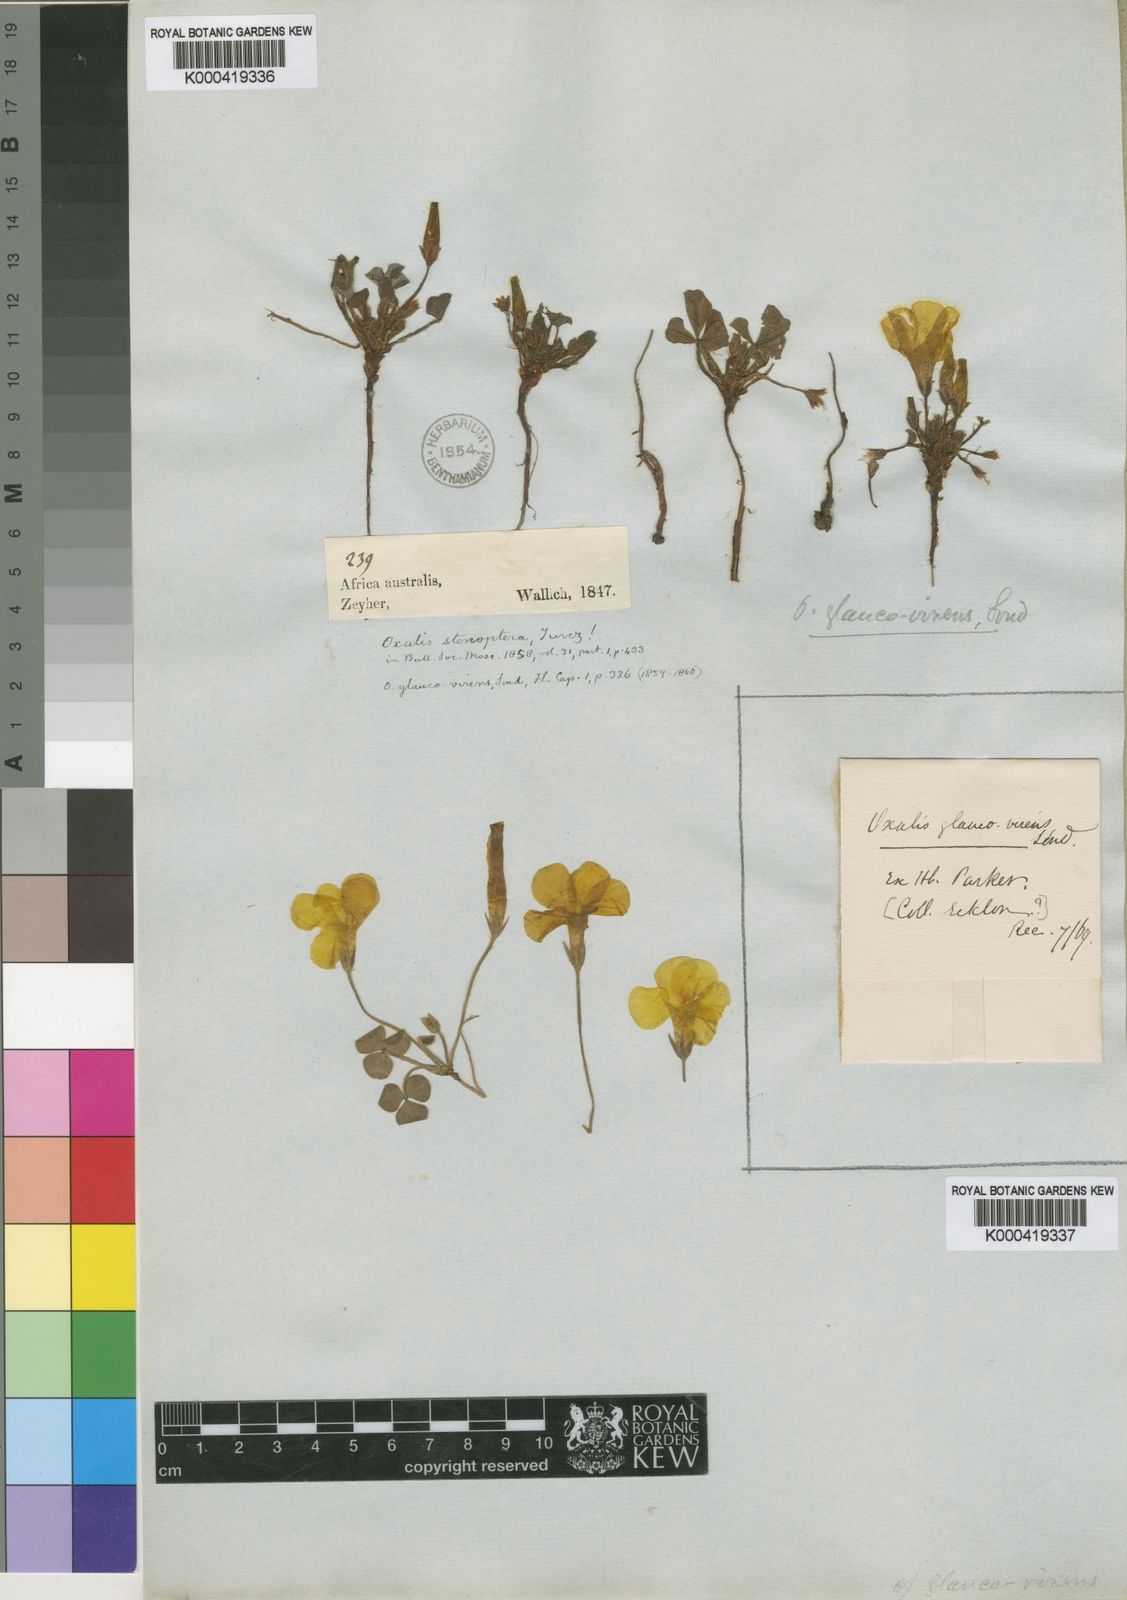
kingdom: Plantae
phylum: Tracheophyta
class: Magnoliopsida
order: Oxalidales
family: Oxalidaceae
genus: Oxalis
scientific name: Oxalis stenoptera
